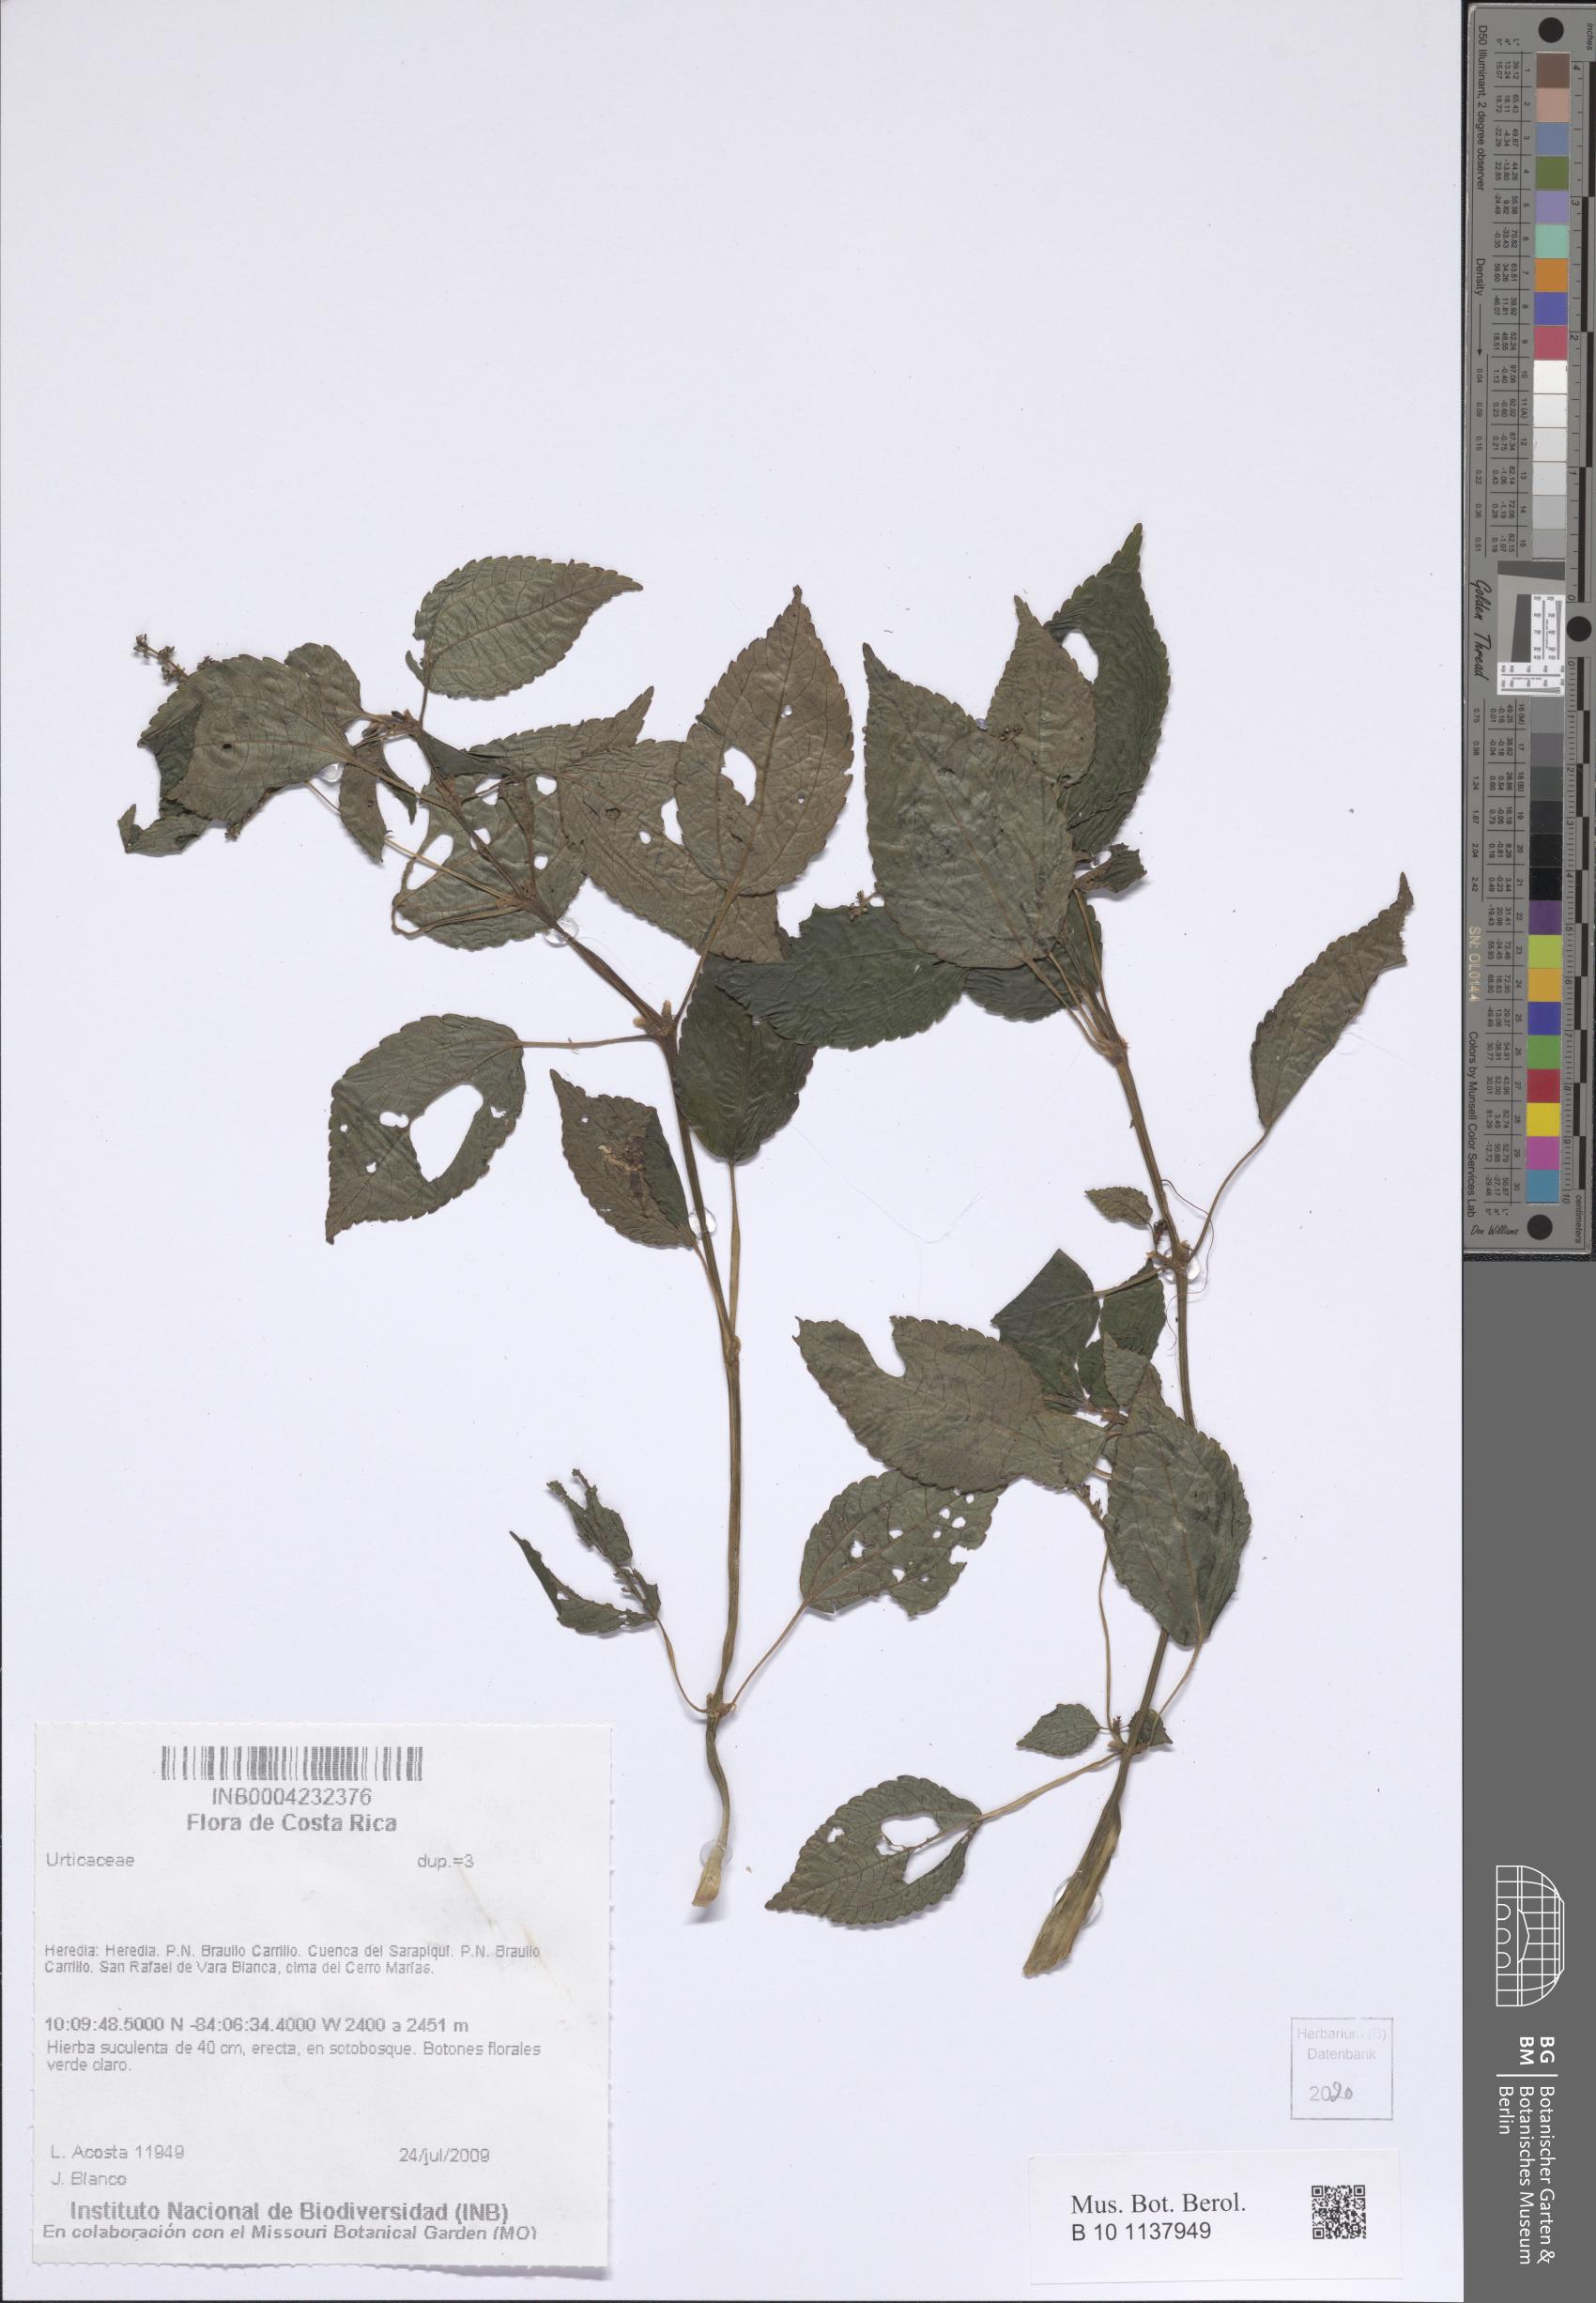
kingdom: Plantae
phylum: Tracheophyta
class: Magnoliopsida
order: Rosales
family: Urticaceae
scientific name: Urticaceae
